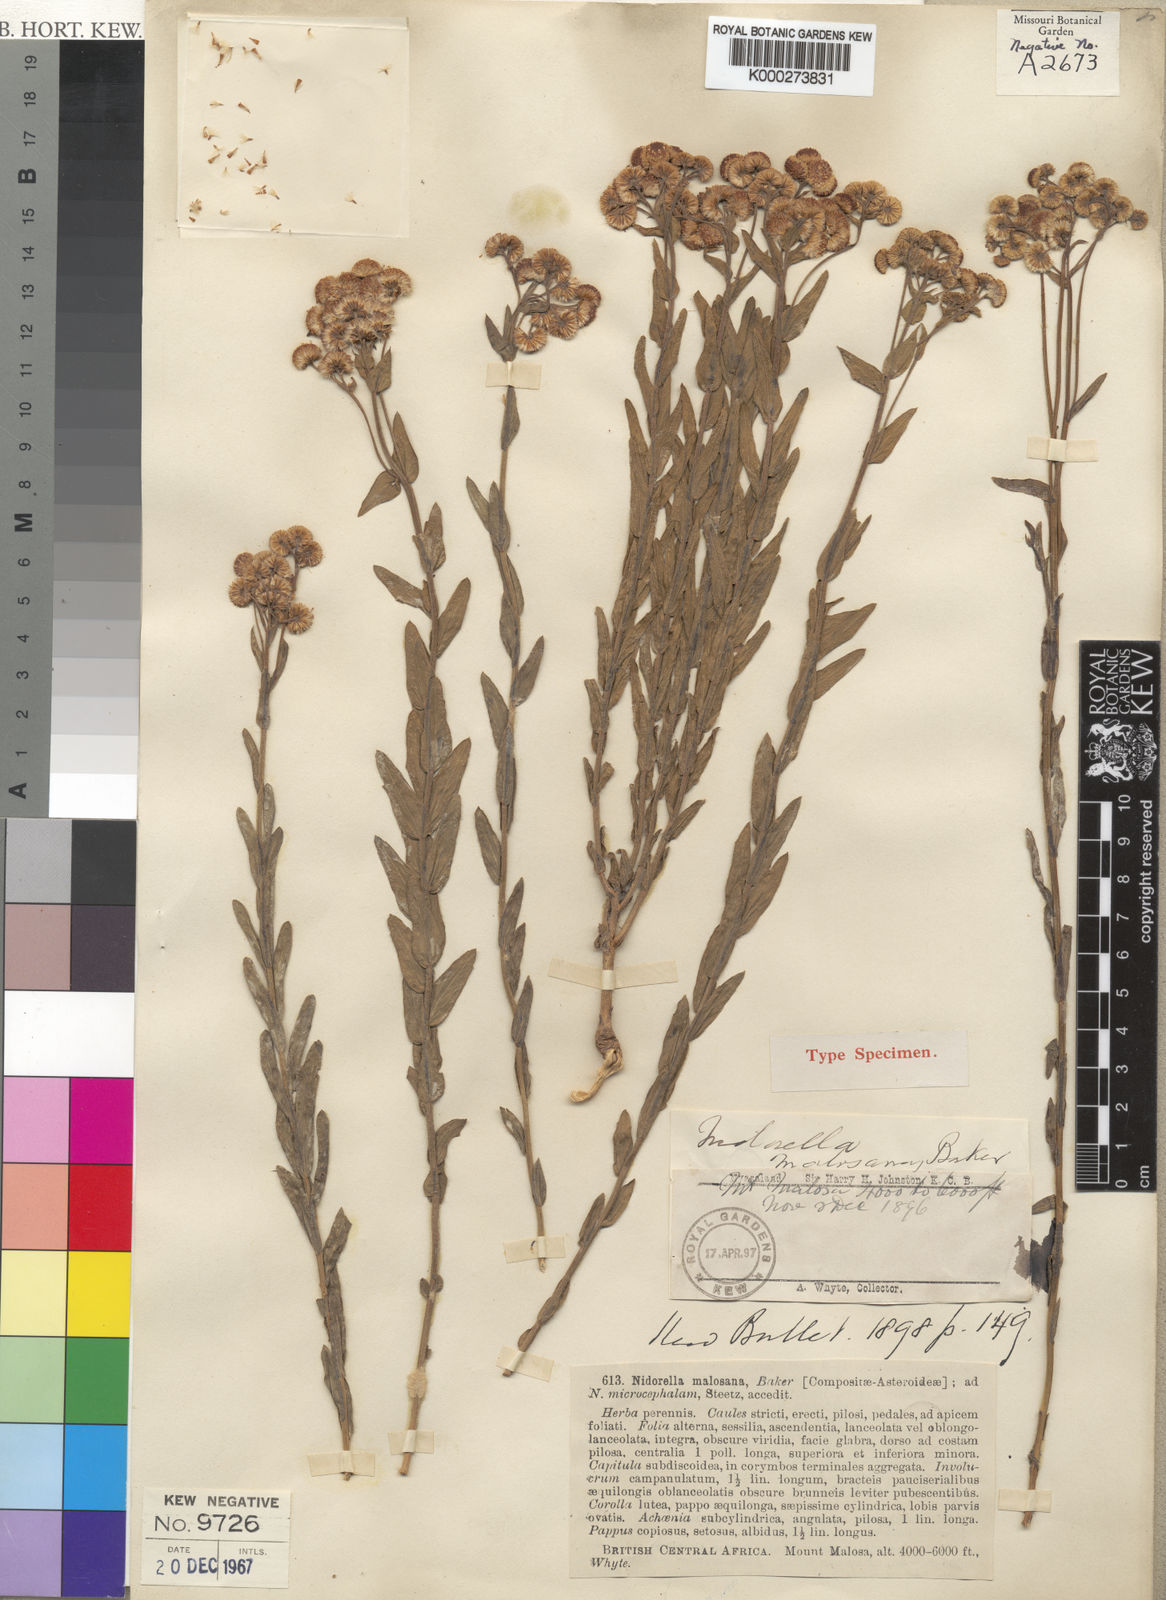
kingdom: Plantae
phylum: Tracheophyta
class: Magnoliopsida
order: Asterales
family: Asteraceae
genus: Nidorella
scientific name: Nidorella spartioides
